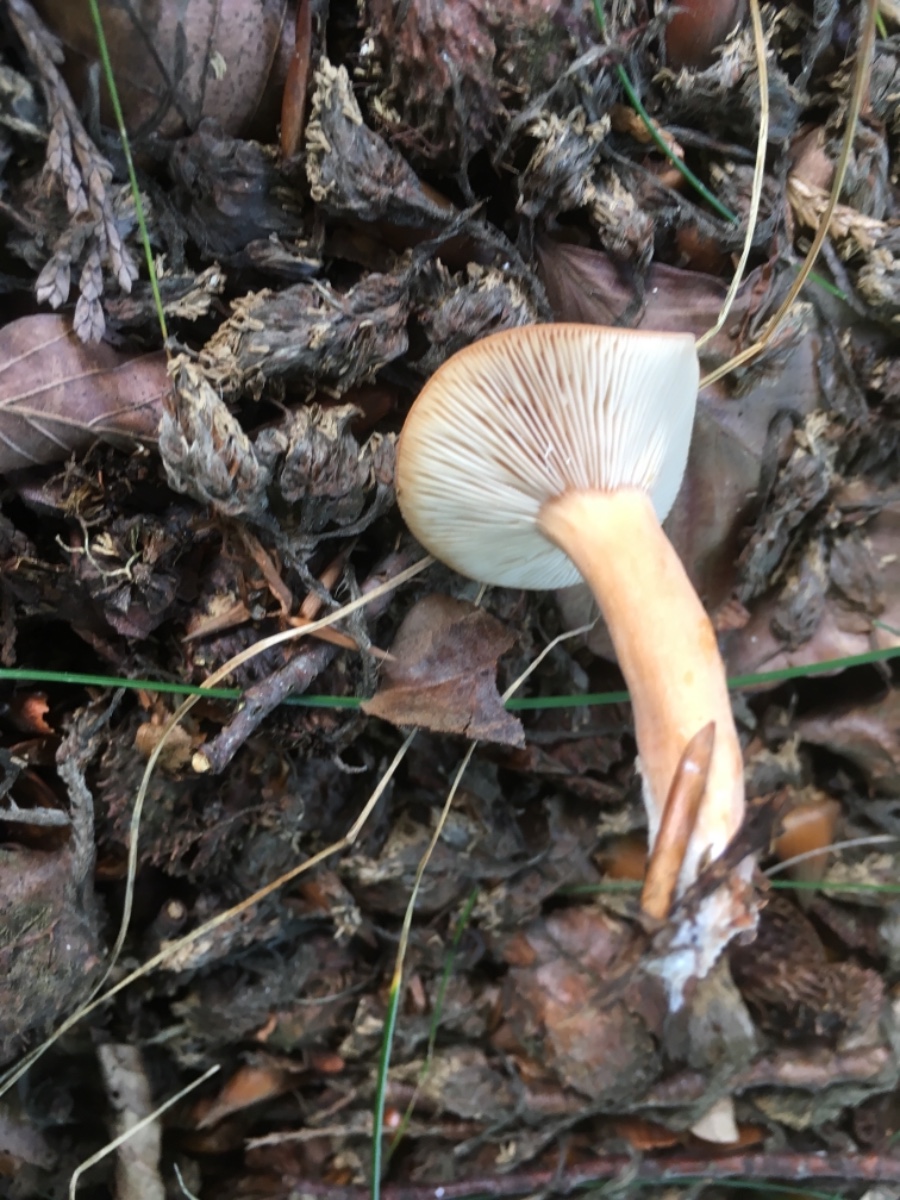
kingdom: Fungi
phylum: Basidiomycota
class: Agaricomycetes
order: Russulales
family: Russulaceae
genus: Lactarius
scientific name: Lactarius subdulcis
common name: sødlig mælkehat
